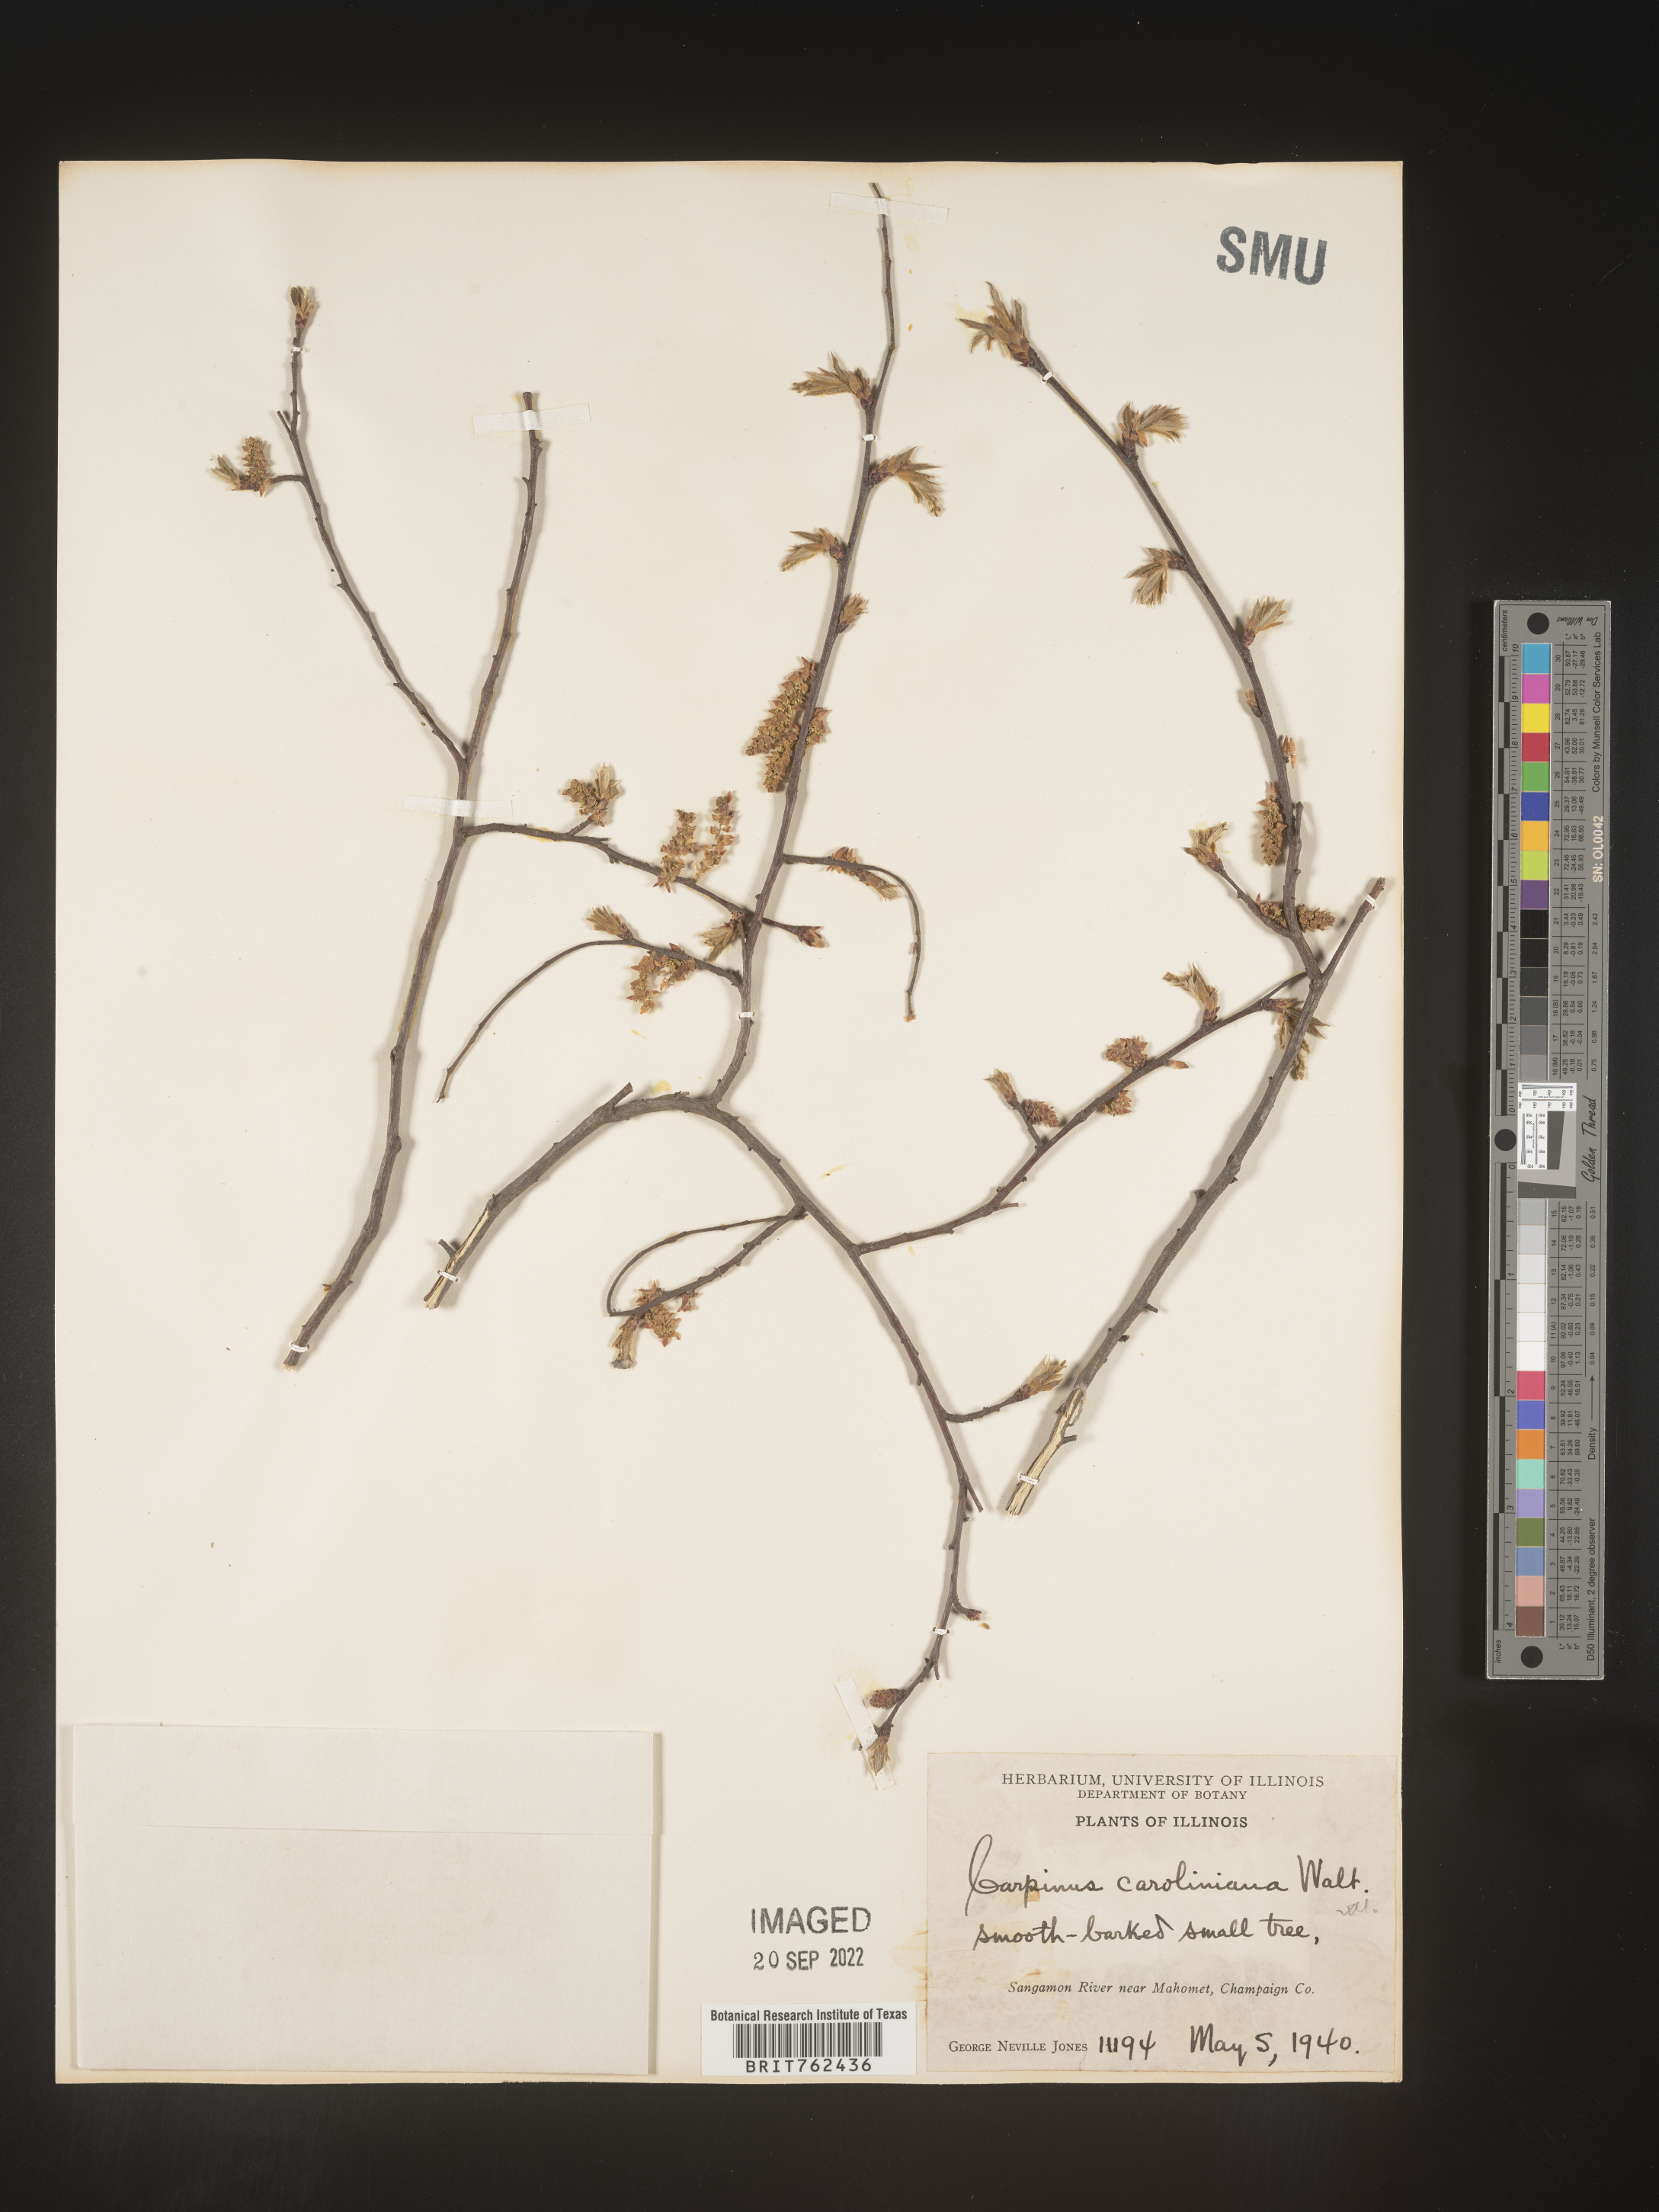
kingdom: Plantae
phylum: Tracheophyta
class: Magnoliopsida
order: Fagales
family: Betulaceae
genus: Carpinus
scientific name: Carpinus caroliniana
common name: American hornbeam
